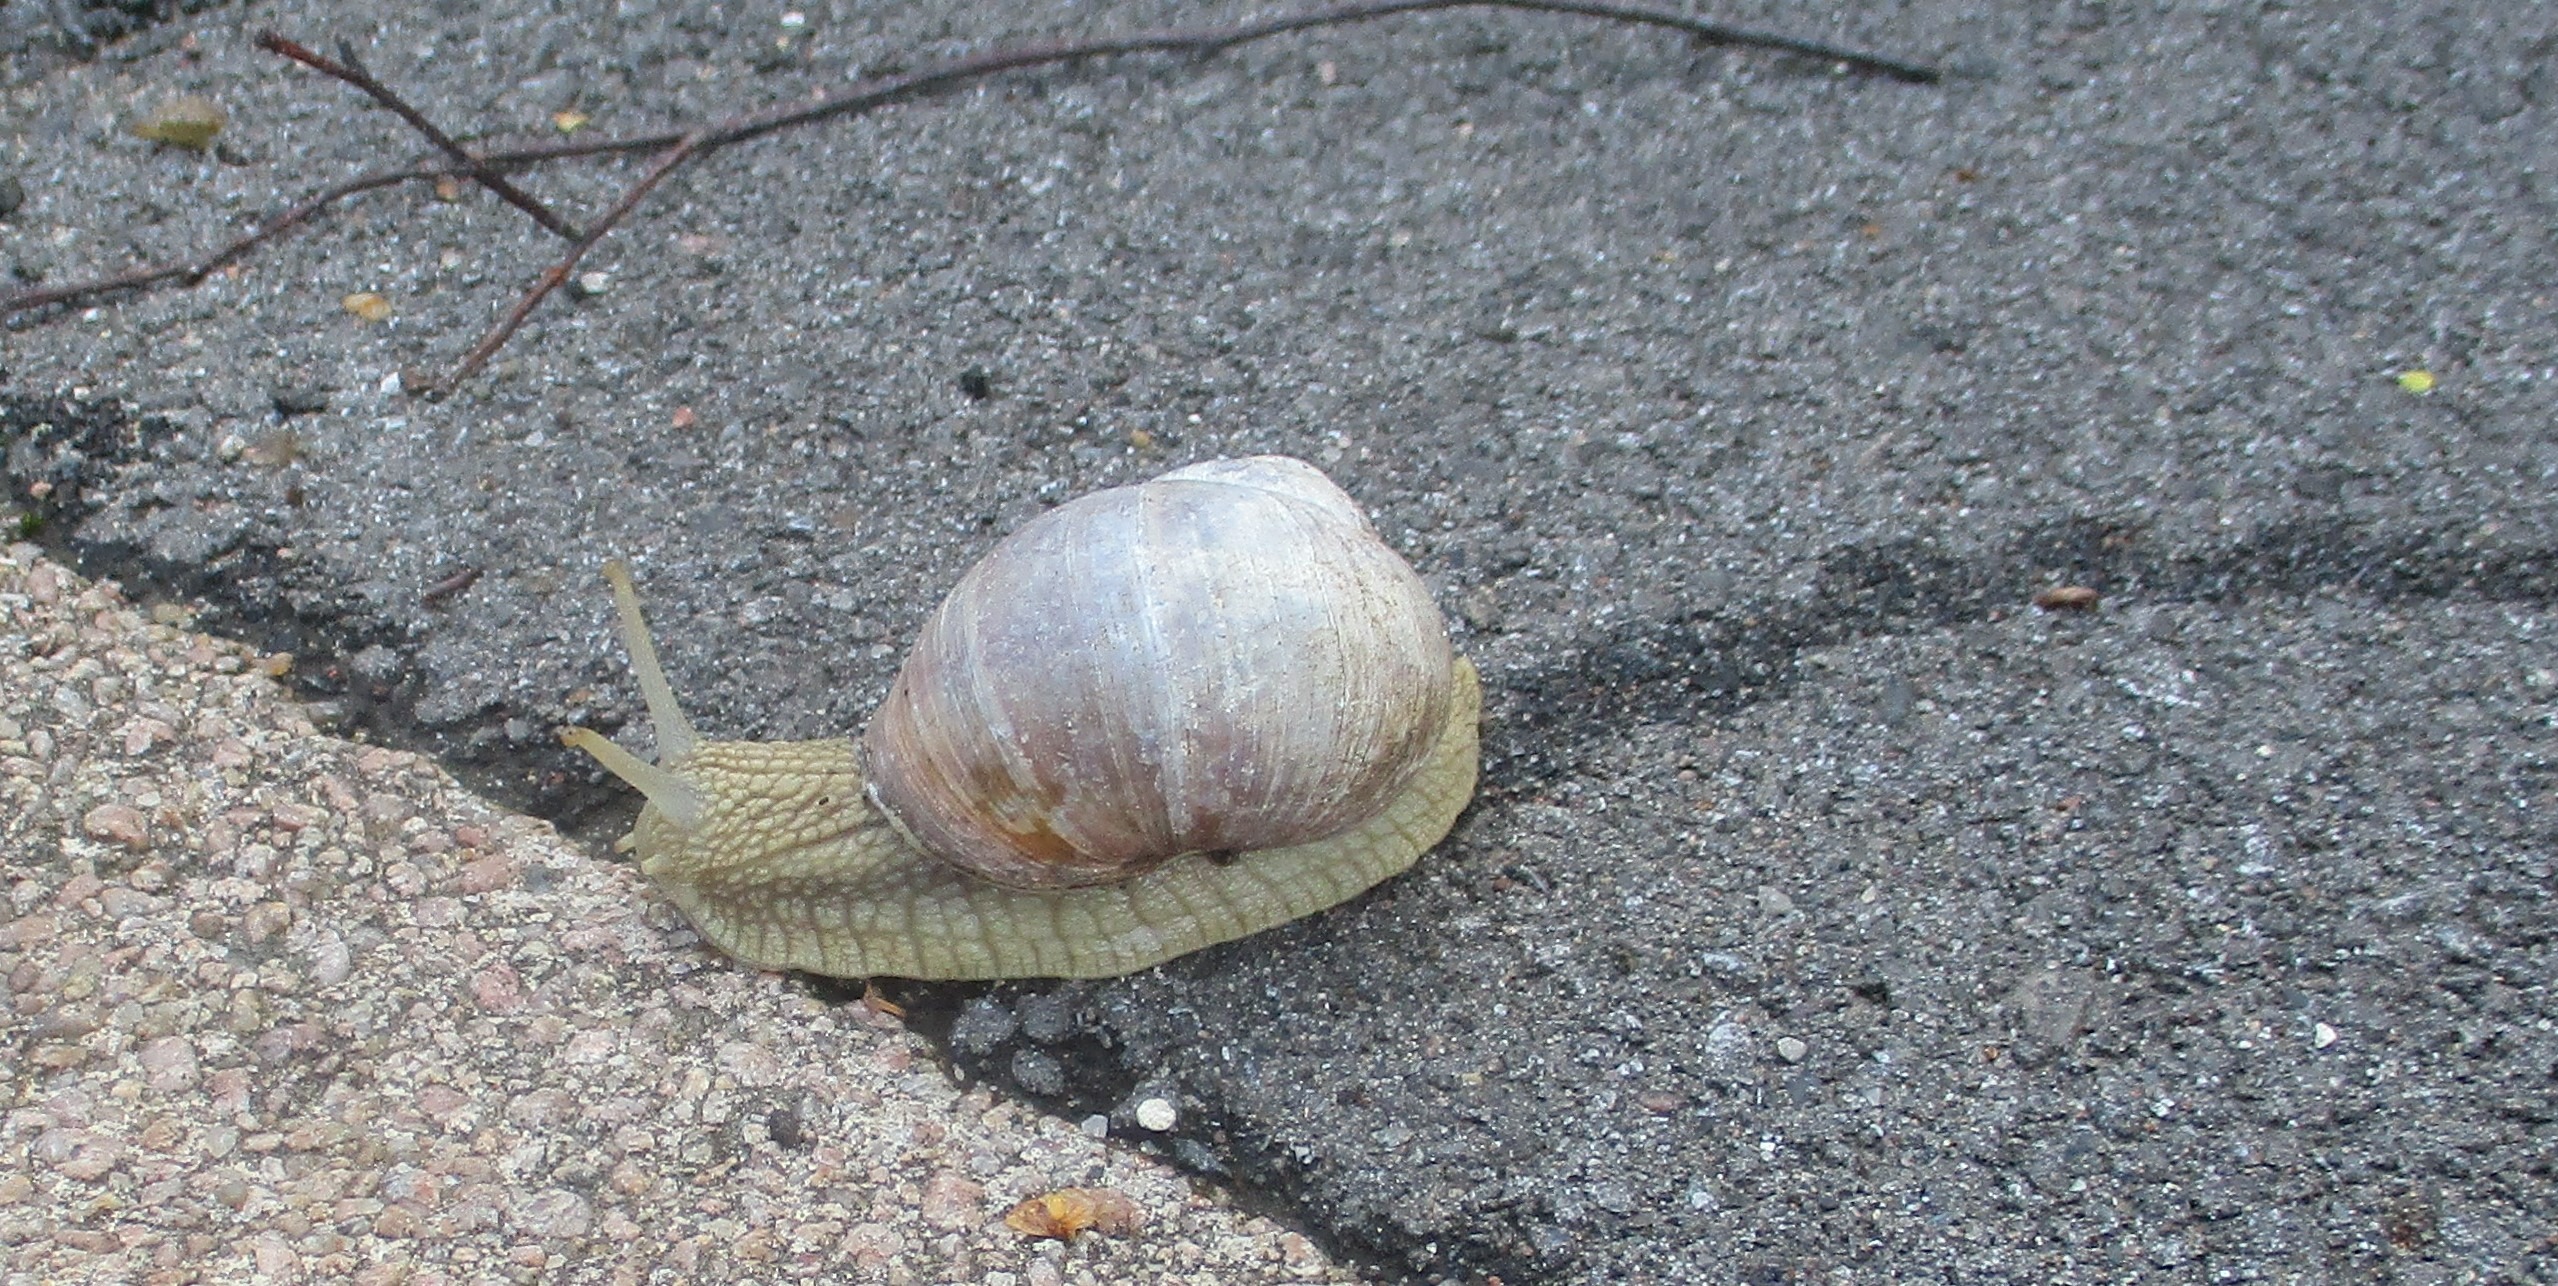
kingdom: Animalia
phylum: Mollusca
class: Gastropoda
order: Stylommatophora
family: Helicidae
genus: Helix
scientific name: Helix pomatia
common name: Vinbjergsnegl
